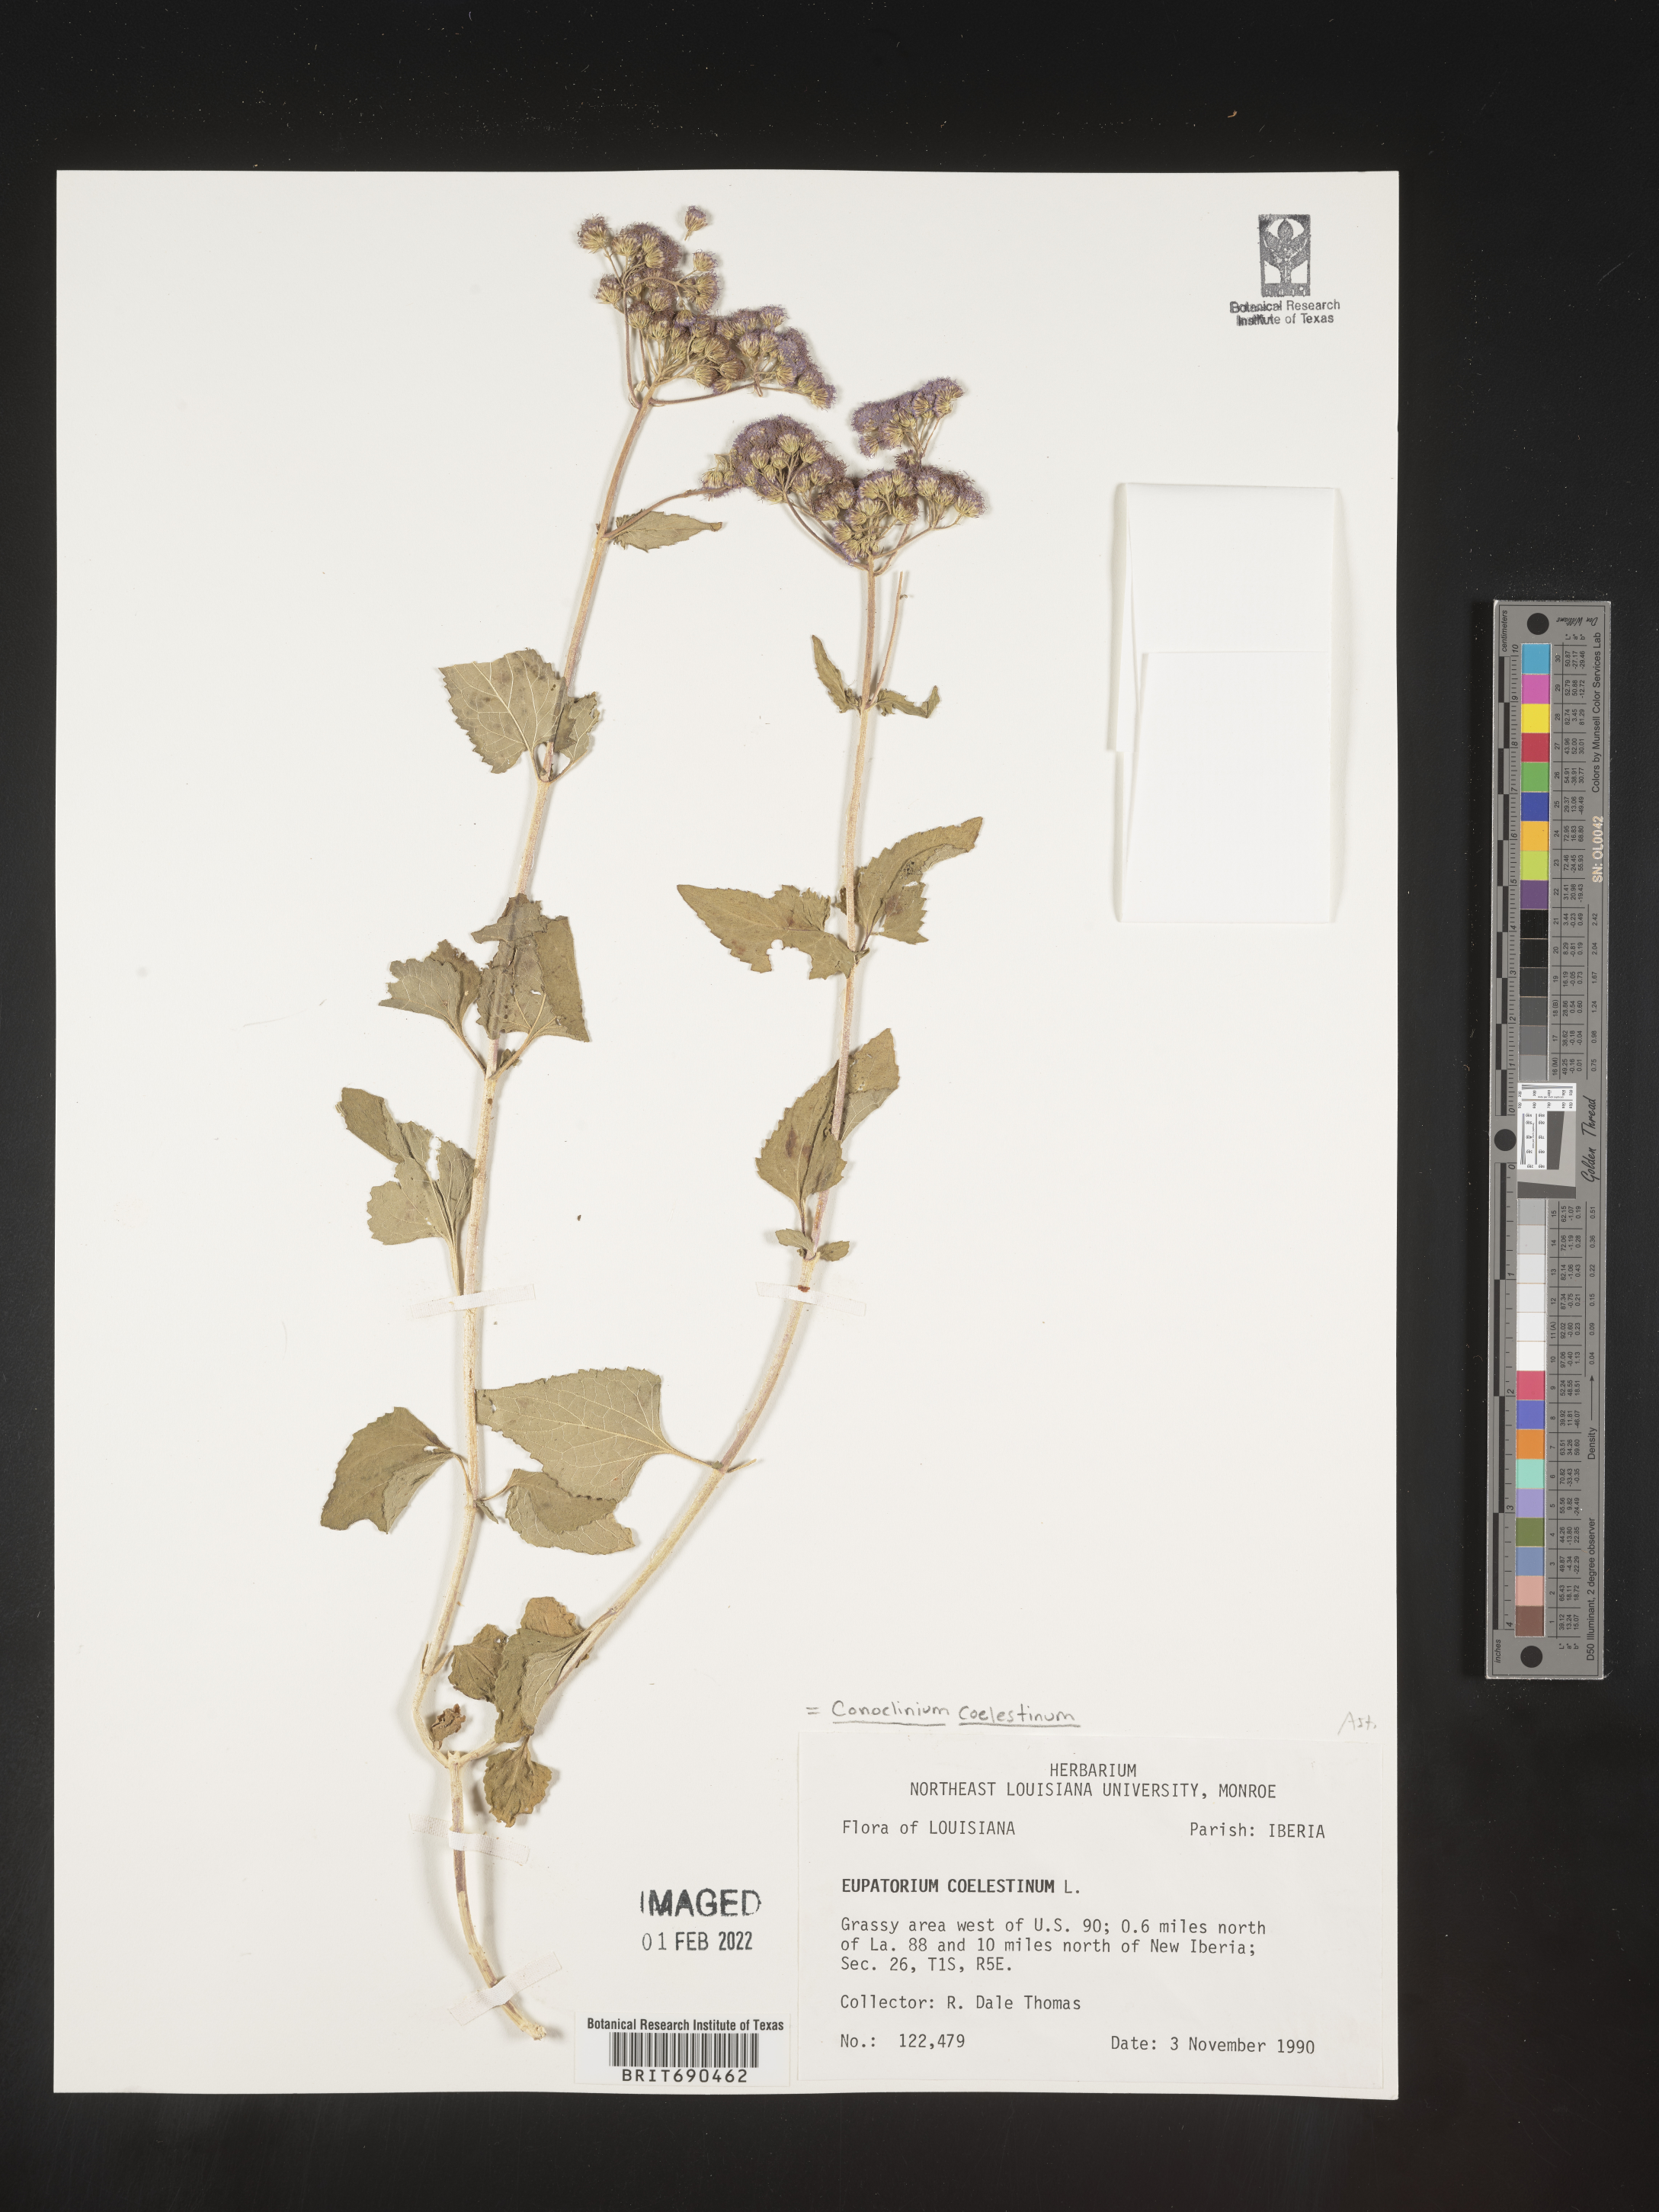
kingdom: Plantae
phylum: Tracheophyta
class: Magnoliopsida
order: Asterales
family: Asteraceae
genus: Conoclinium
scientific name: Conoclinium coelestinum
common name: Blue mistflower
